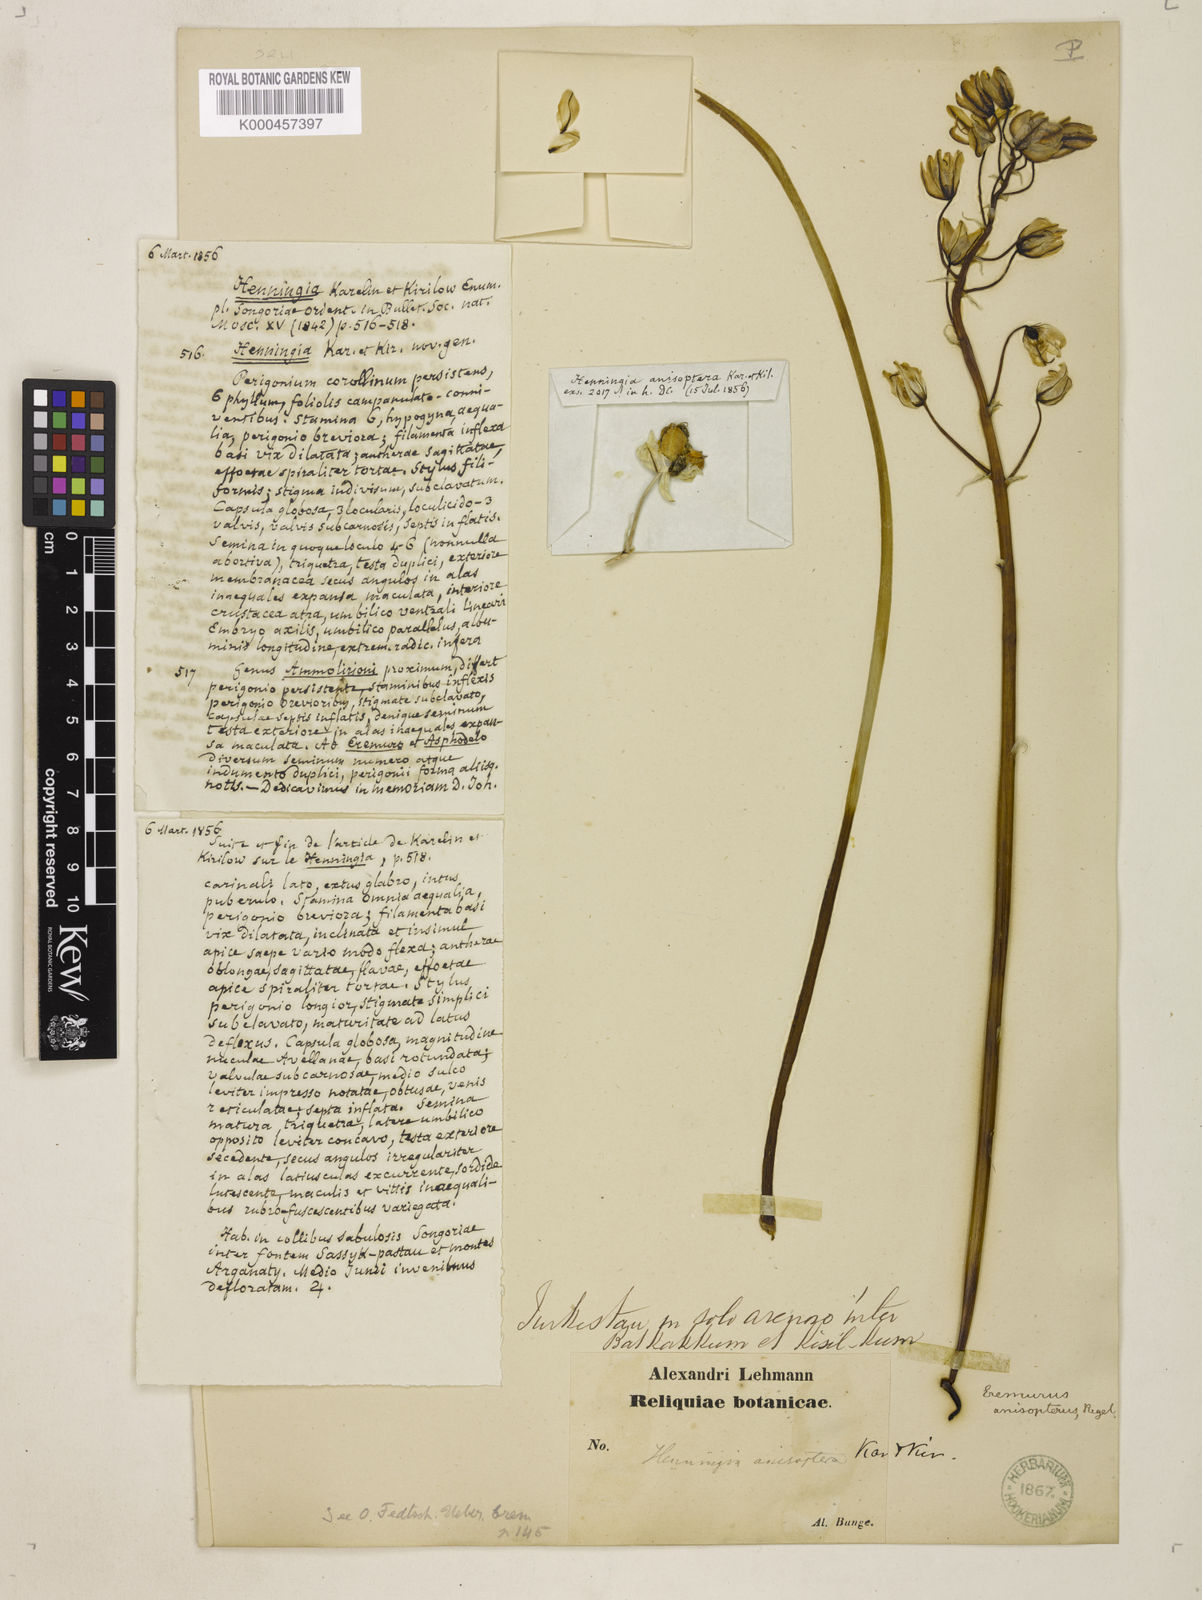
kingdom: Plantae
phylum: Tracheophyta
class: Liliopsida
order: Asparagales
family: Asphodelaceae
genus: Eremurus
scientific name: Eremurus anisopterus
